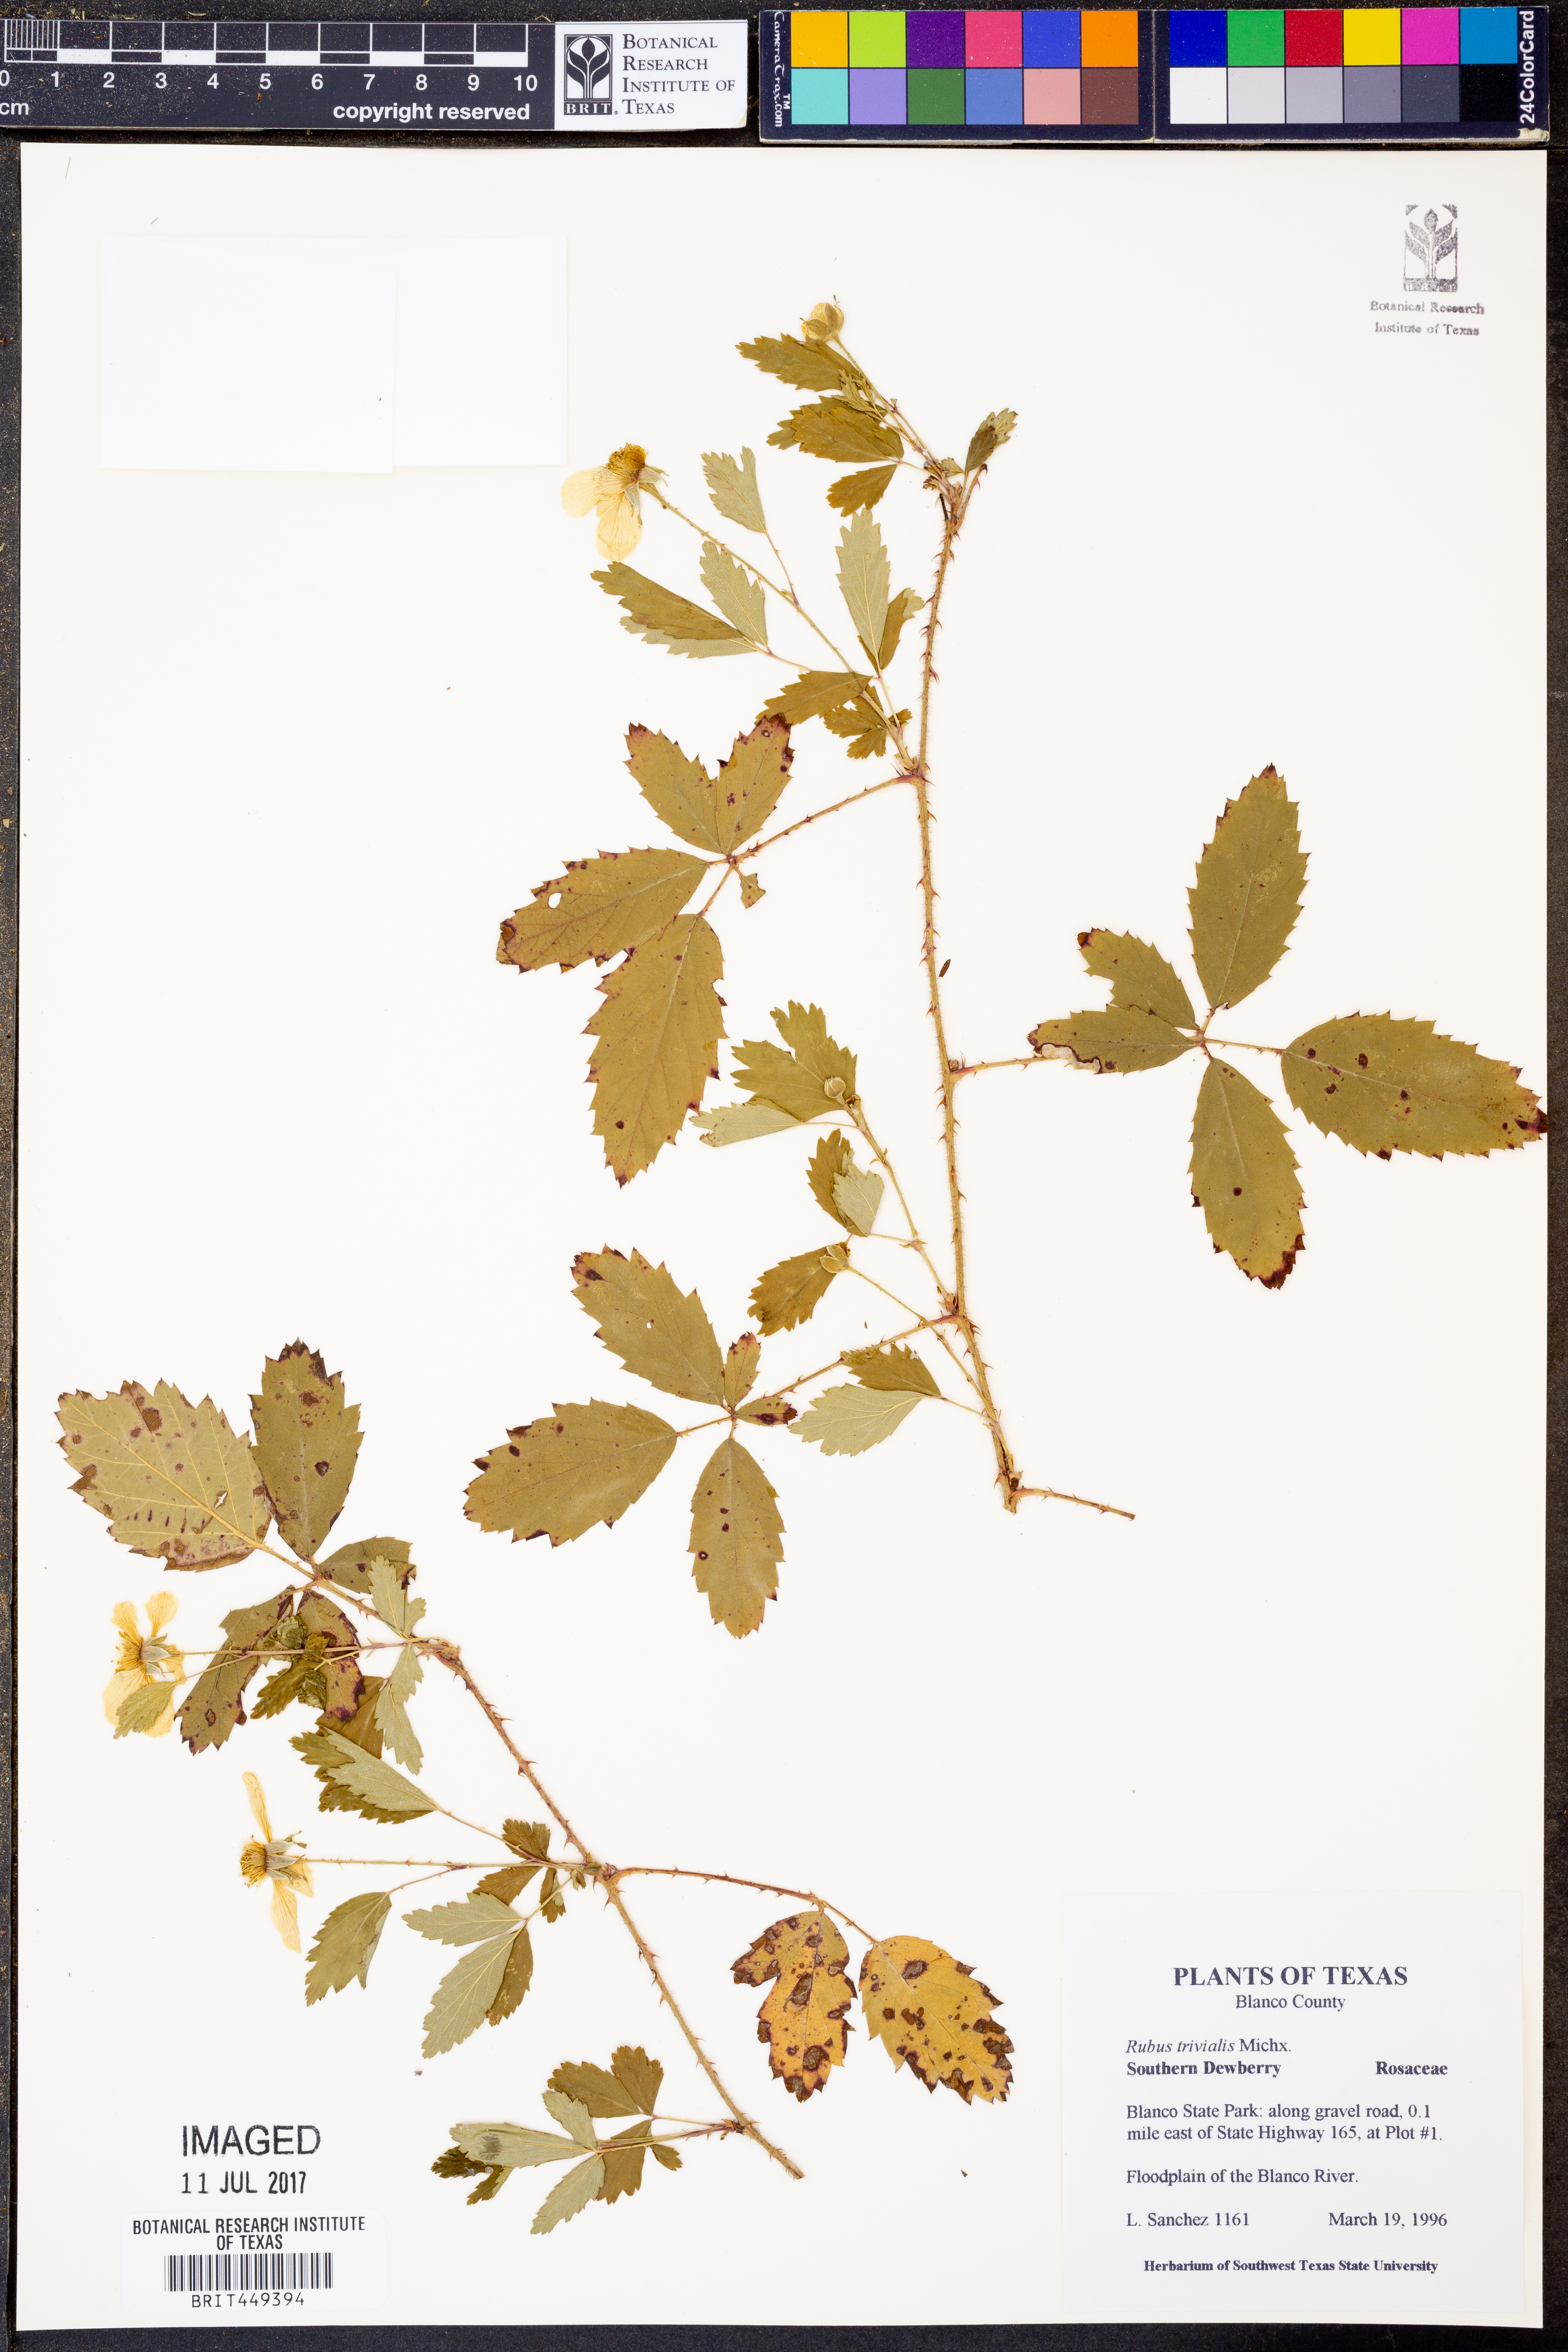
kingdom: Plantae
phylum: Tracheophyta
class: Magnoliopsida
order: Rosales
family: Rosaceae
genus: Rubus
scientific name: Rubus trivialis
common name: Southern dewberry
